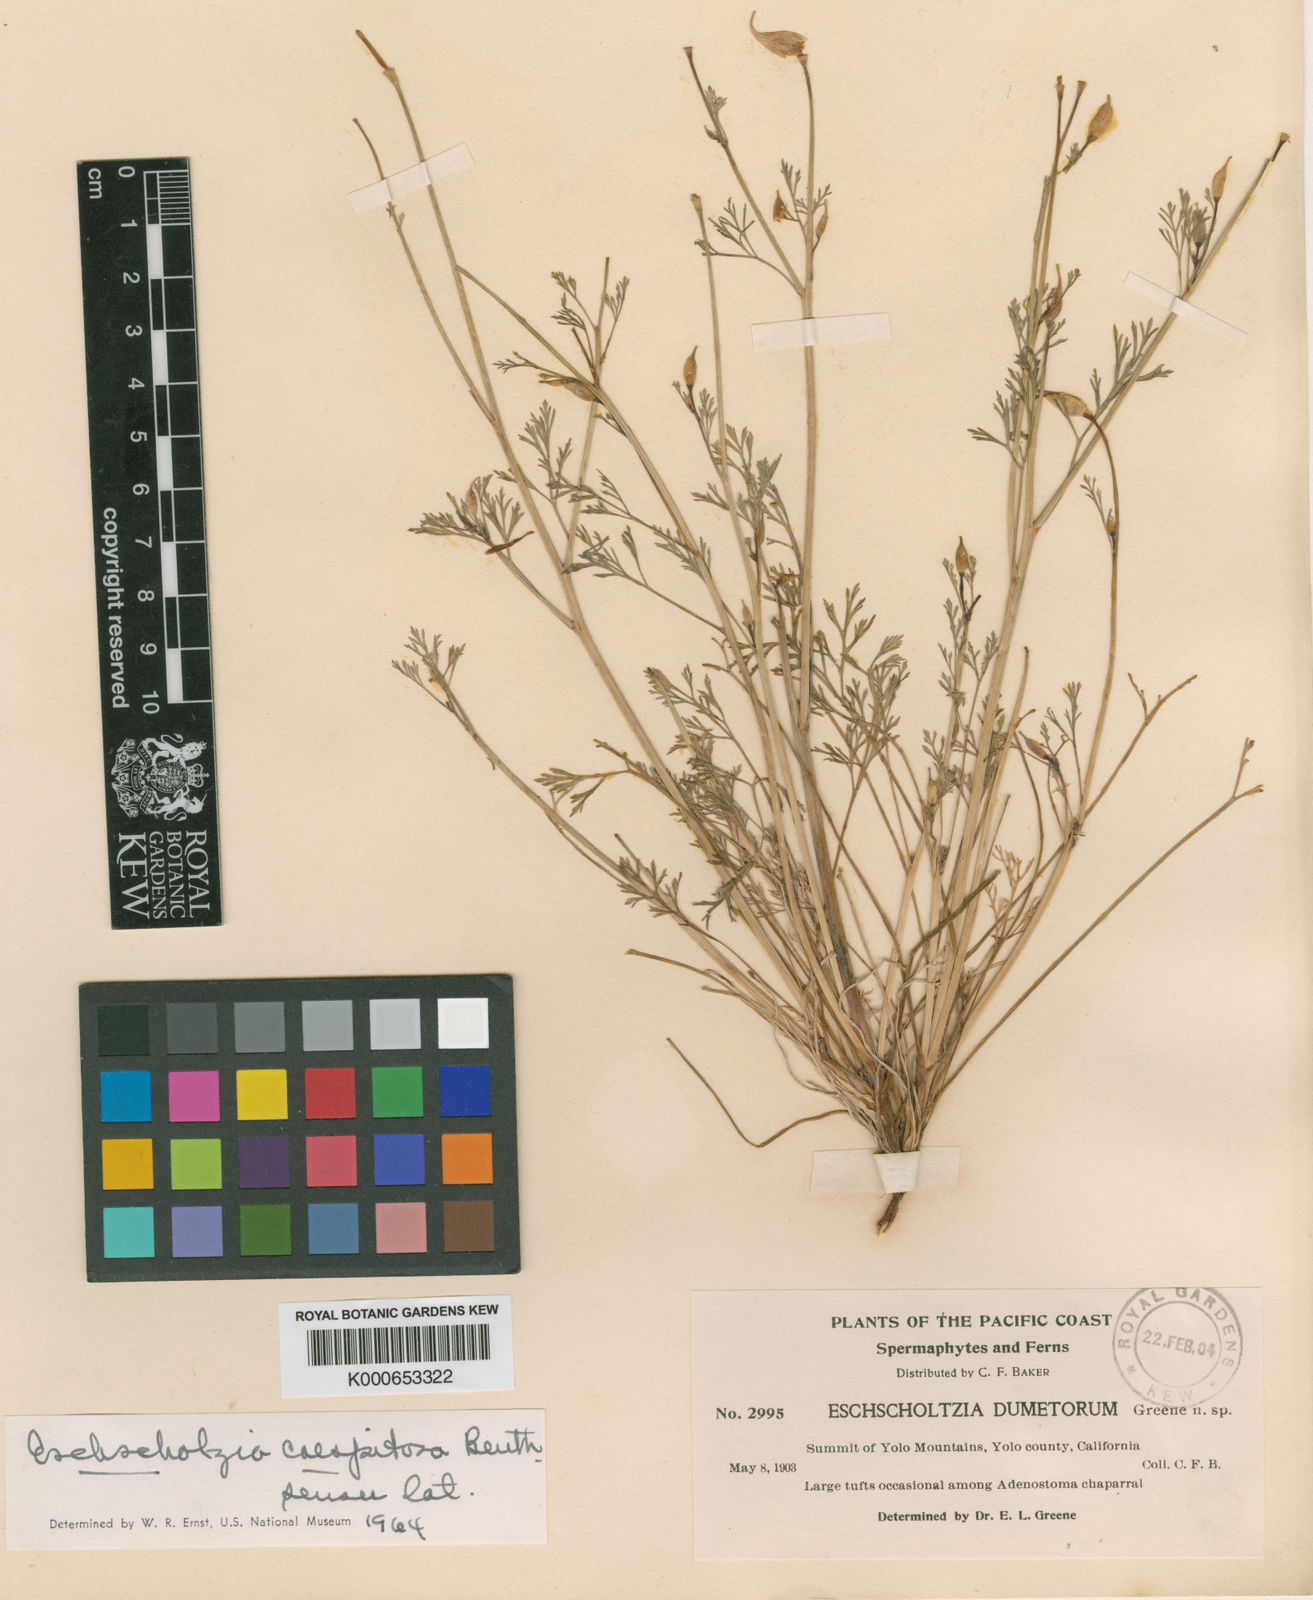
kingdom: Plantae
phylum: Tracheophyta
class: Magnoliopsida
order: Ranunculales
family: Papaveraceae
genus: Eschscholzia
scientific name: Eschscholzia caespitosa
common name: Tufted california-poppy
